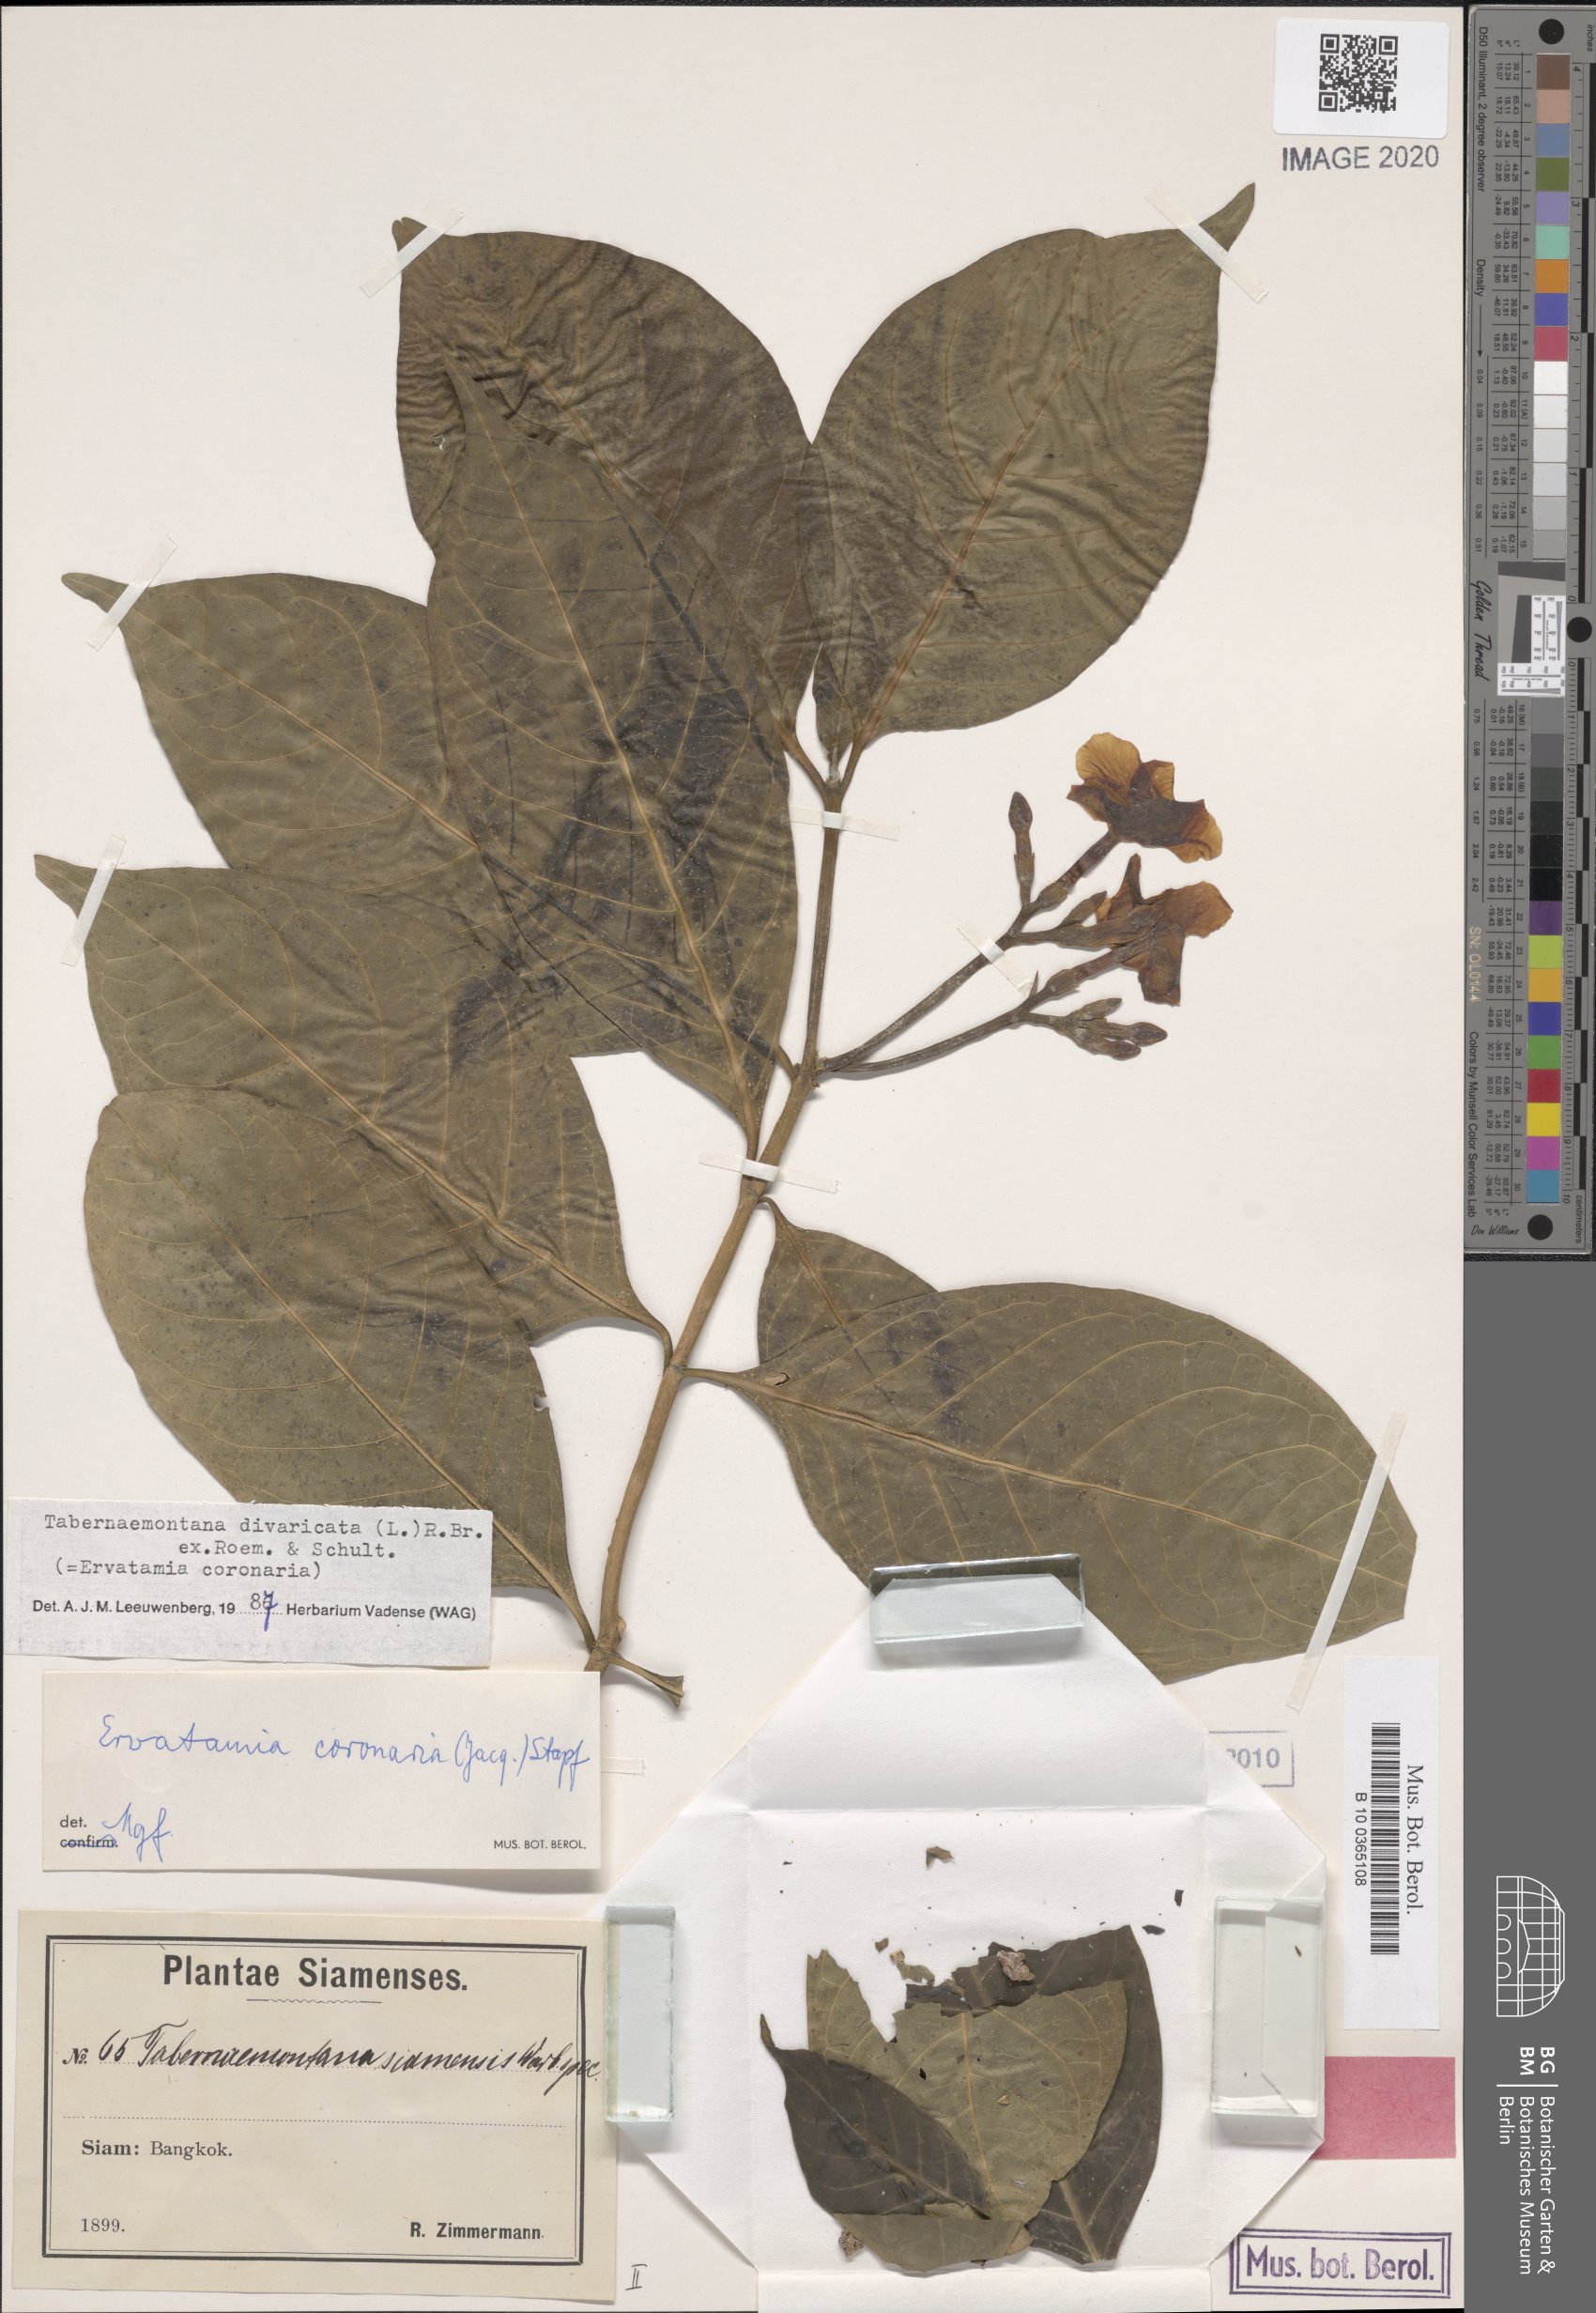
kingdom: Plantae
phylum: Tracheophyta
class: Magnoliopsida
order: Gentianales
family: Apocynaceae
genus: Tabernaemontana
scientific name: Tabernaemontana divaricata
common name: Pinwheelflower
